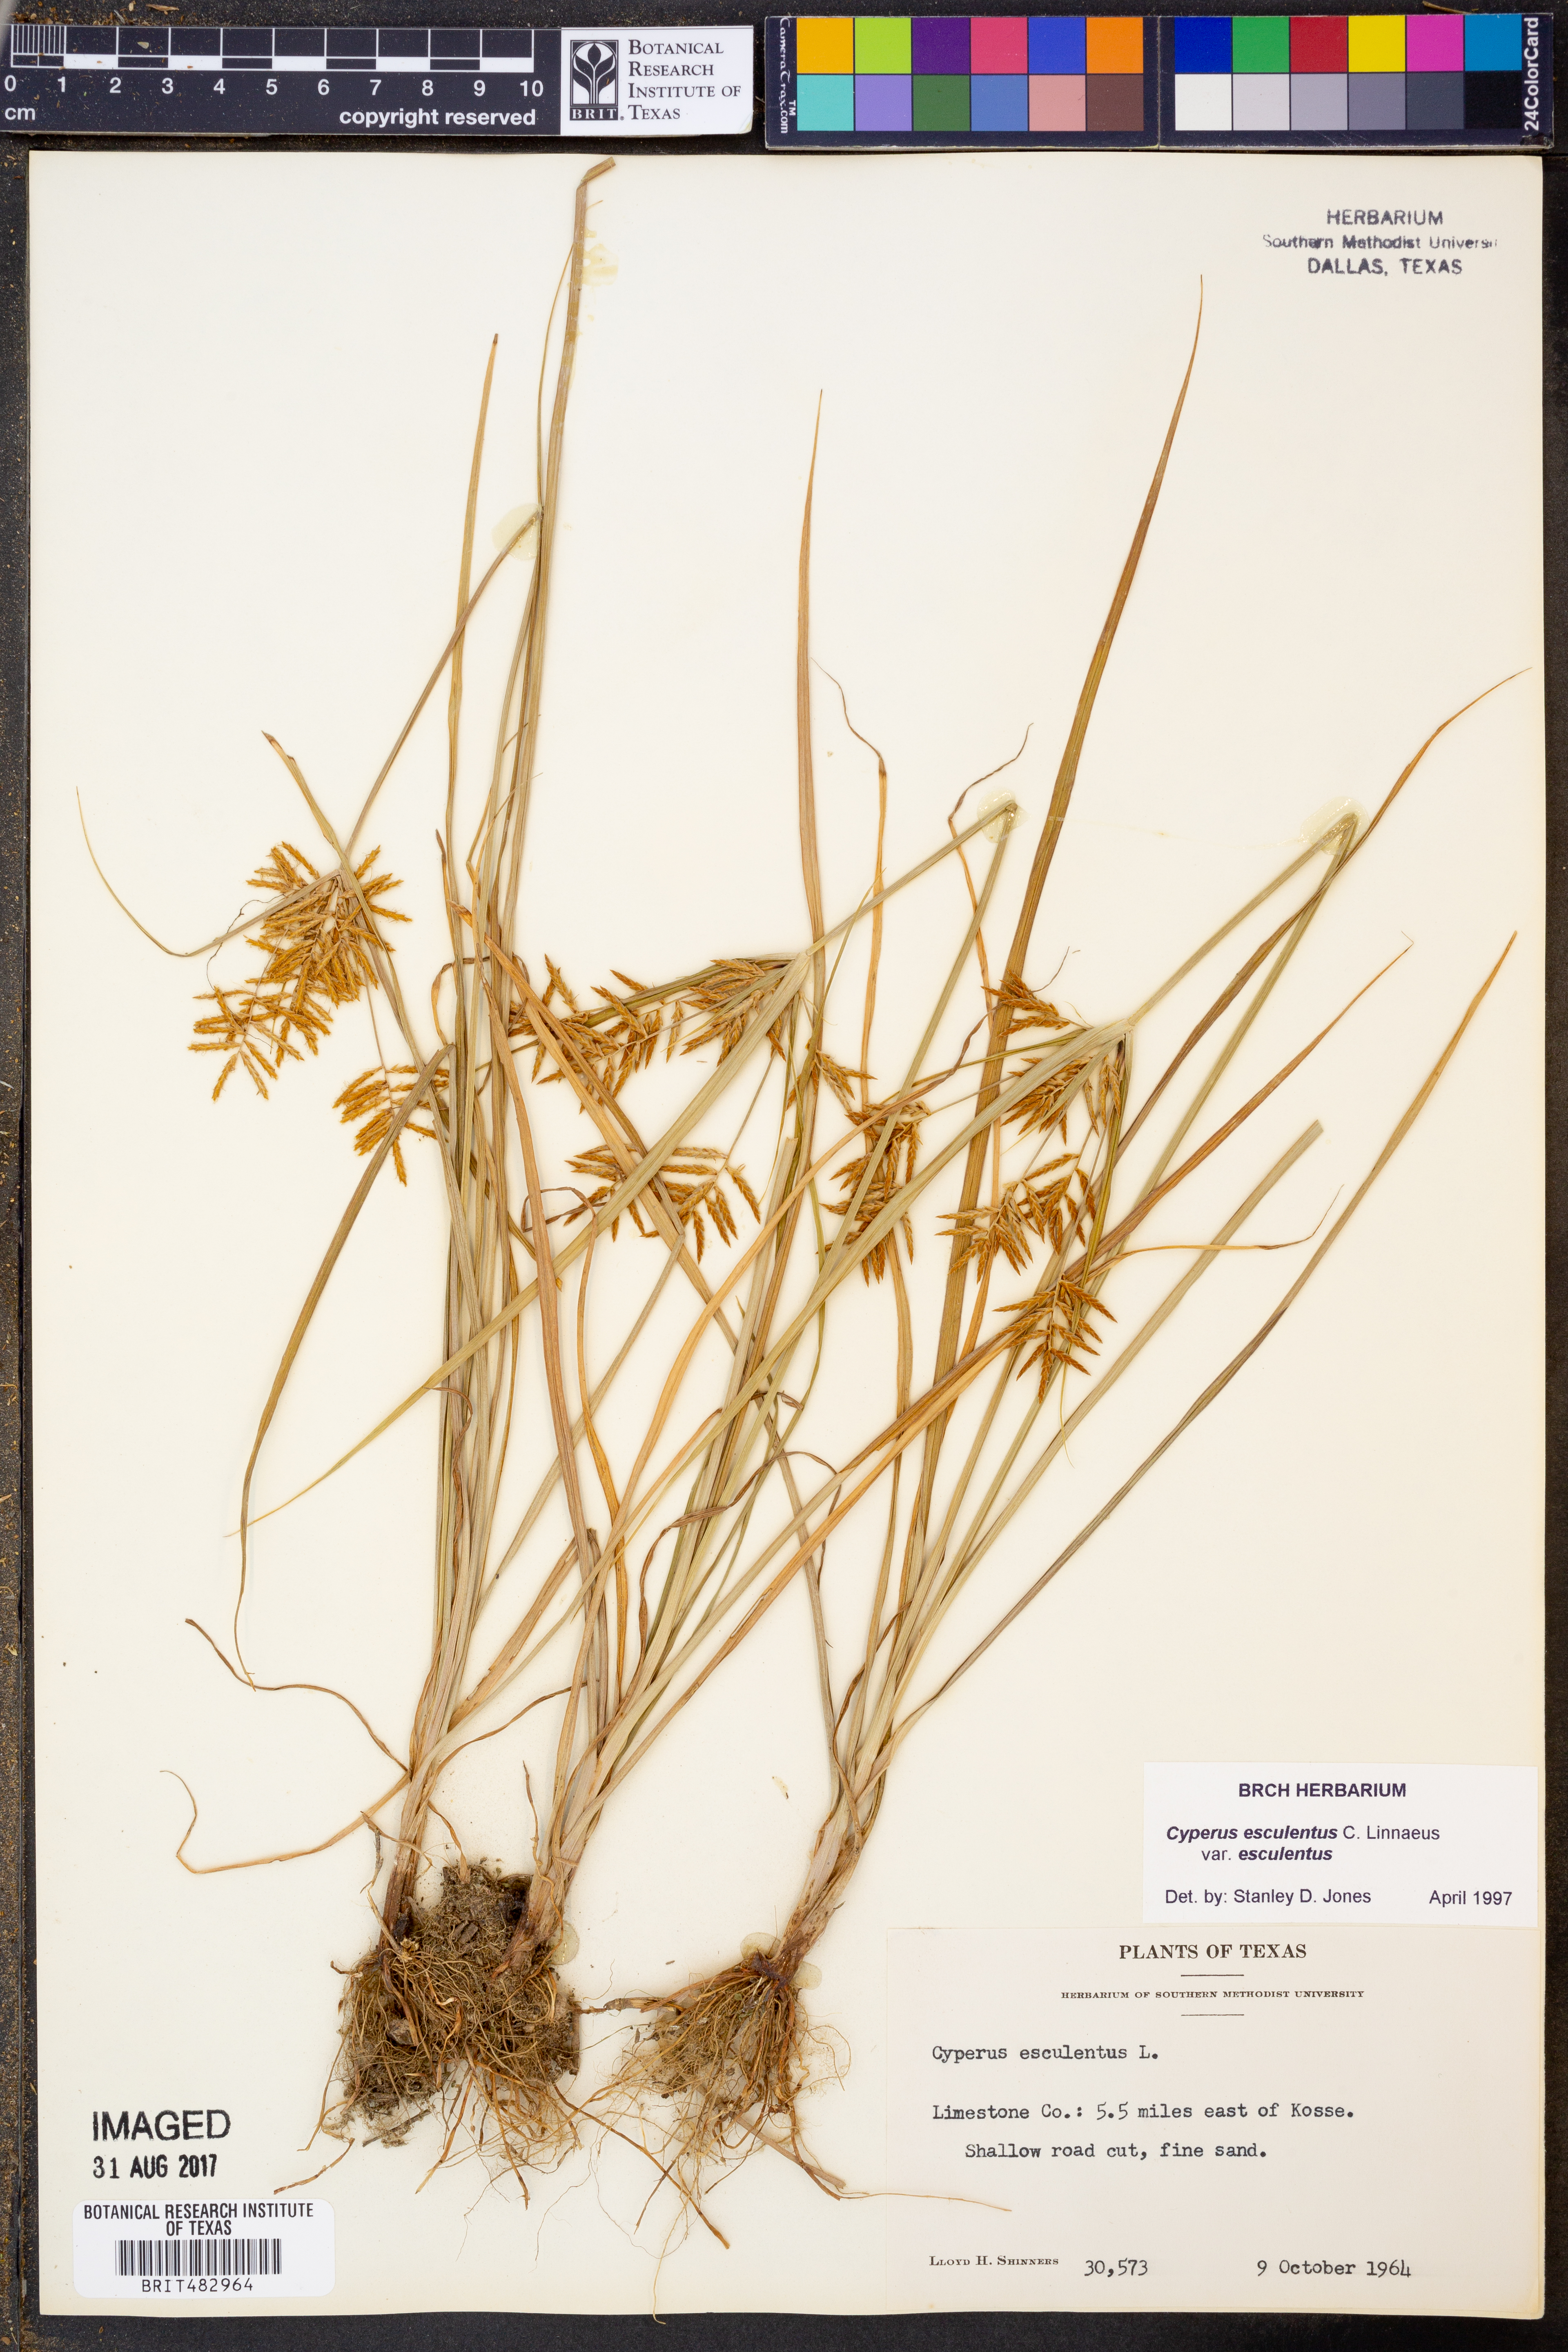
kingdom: Plantae
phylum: Tracheophyta
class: Liliopsida
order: Poales
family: Cyperaceae
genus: Cyperus
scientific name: Cyperus esculentus
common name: Yellow nutsedge
